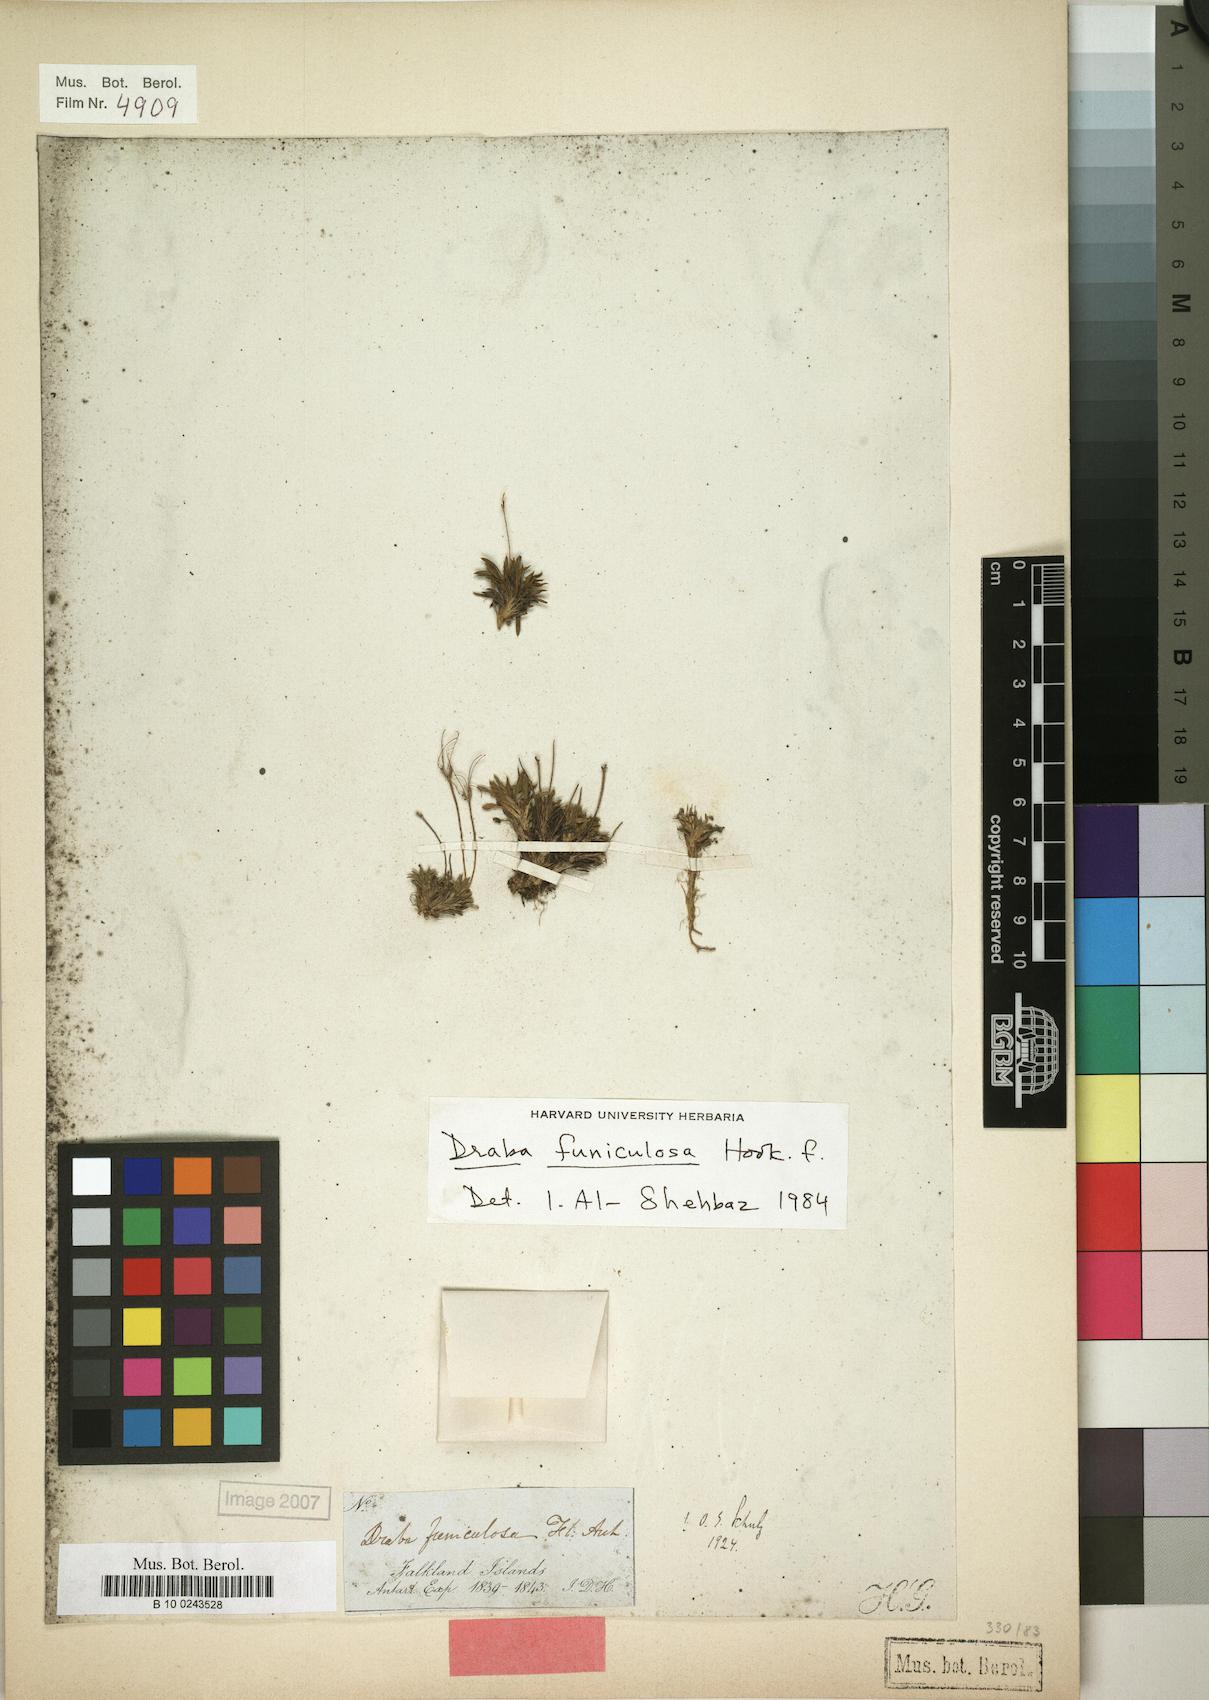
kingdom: Plantae
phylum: Tracheophyta
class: Magnoliopsida
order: Brassicales
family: Brassicaceae
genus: Draba
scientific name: Draba funiculosa
